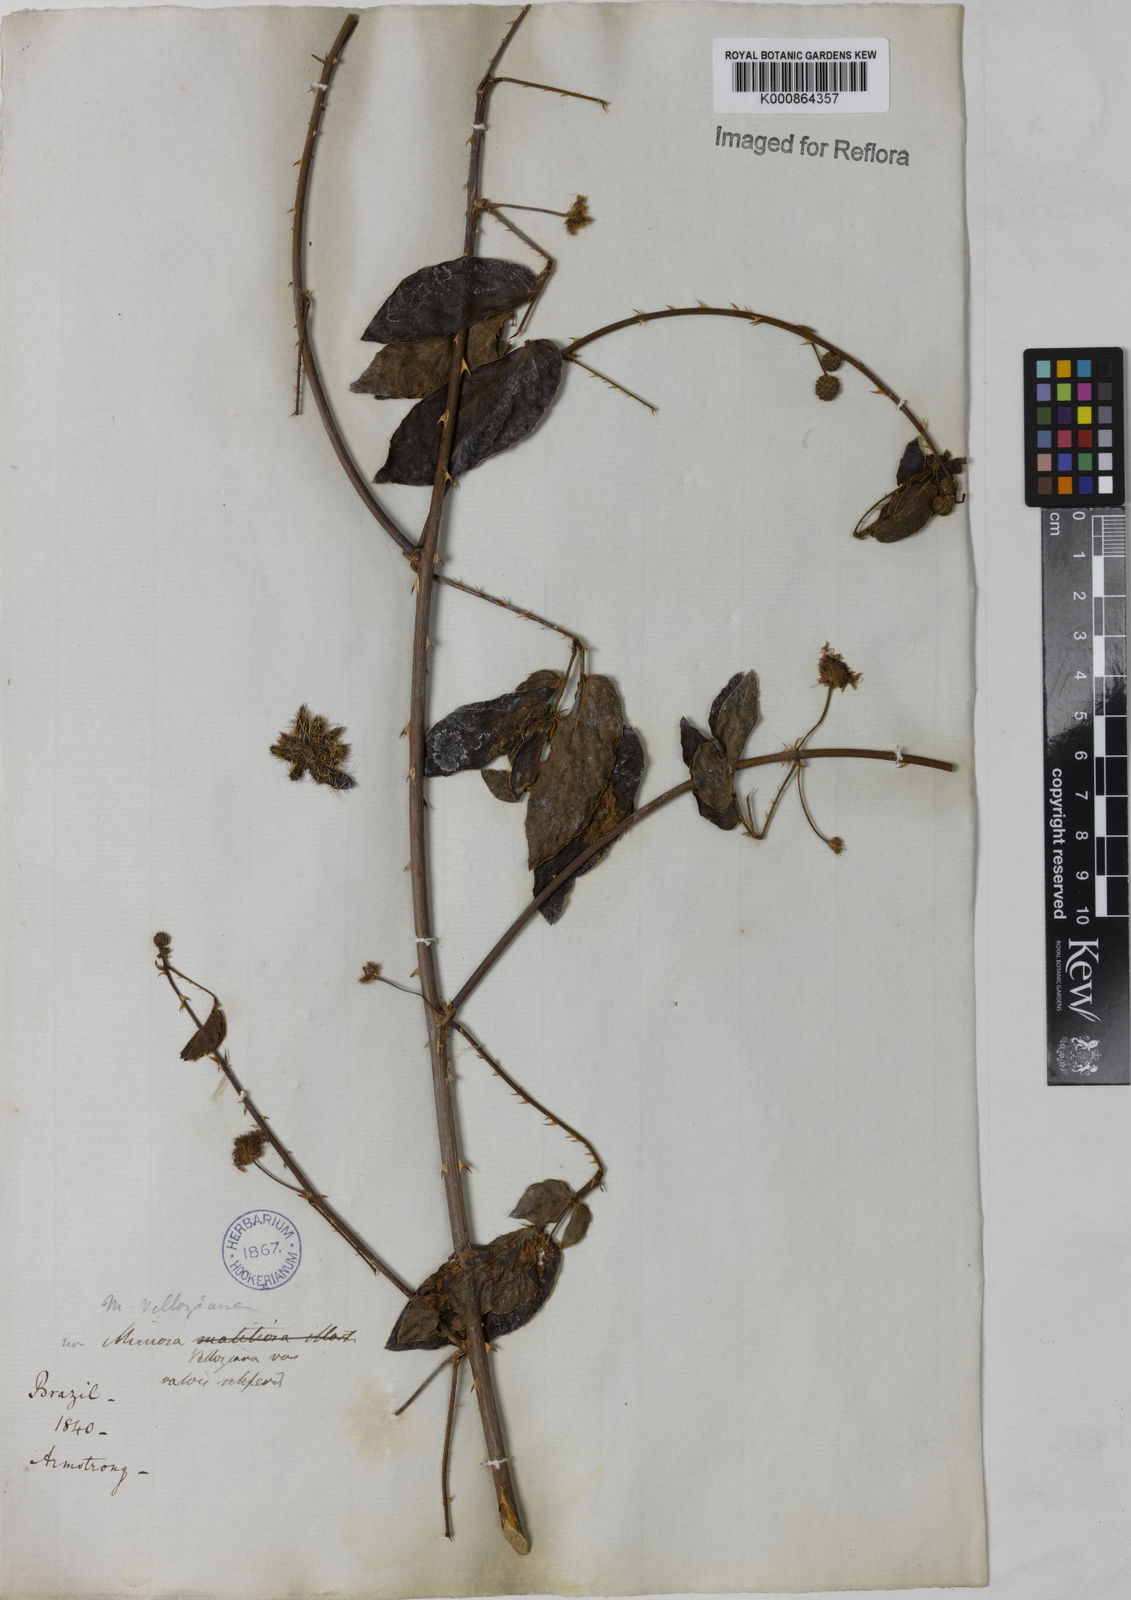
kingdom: Plantae
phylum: Tracheophyta
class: Magnoliopsida
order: Fabales
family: Fabaceae
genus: Mimosa
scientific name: Mimosa velloziana
